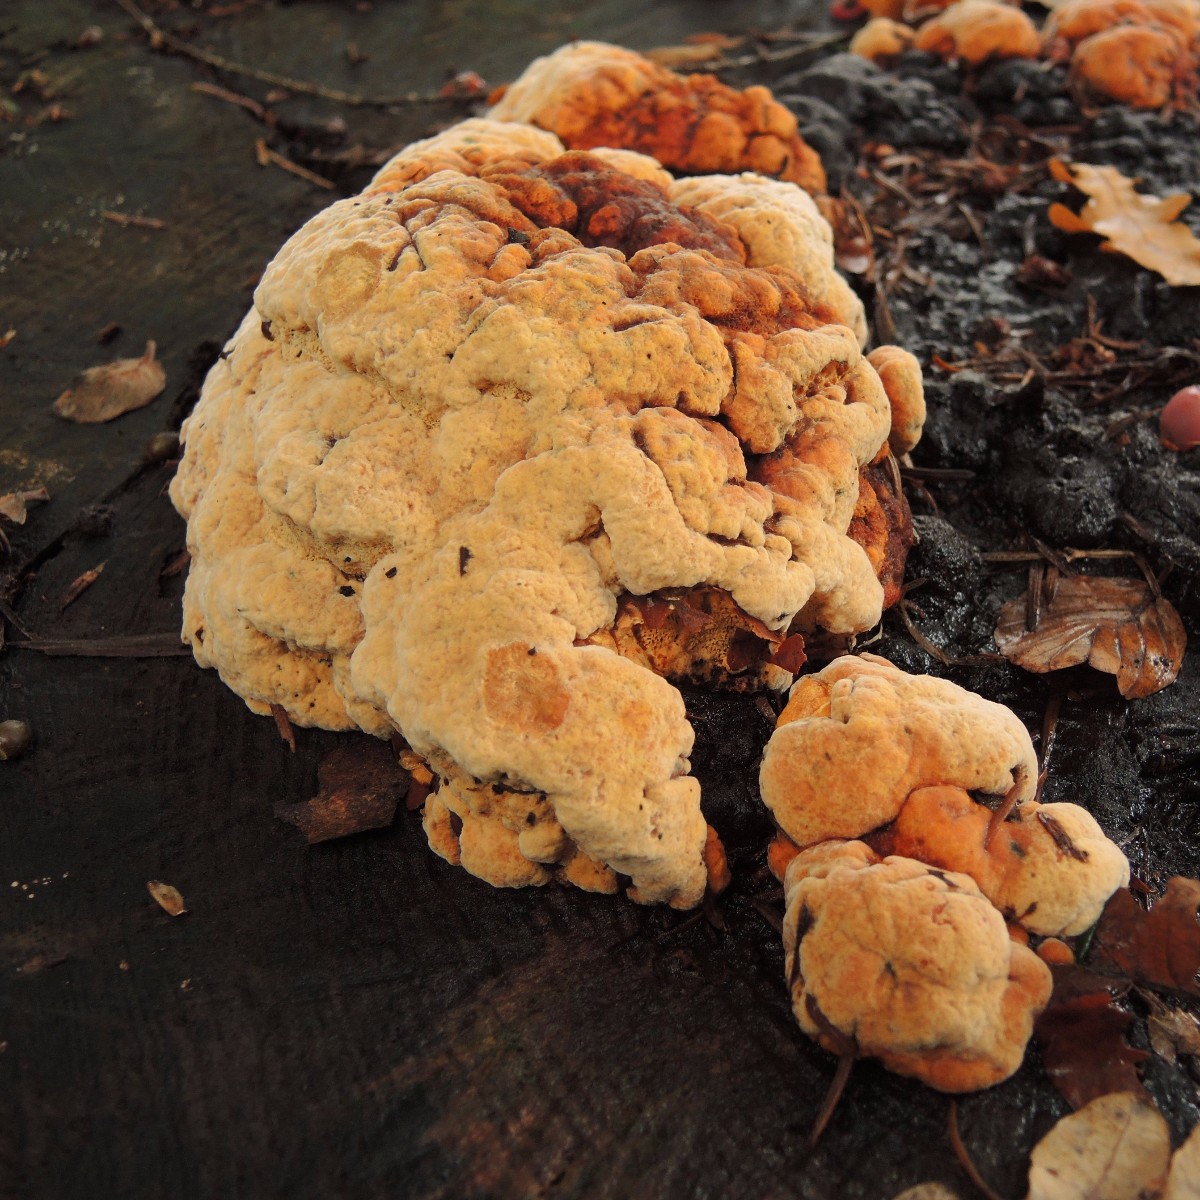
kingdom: Fungi
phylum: Basidiomycota
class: Agaricomycetes
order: Gloeophyllales
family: Gloeophyllaceae
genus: Gloeophyllum
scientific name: Gloeophyllum odoratum
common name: duftende korkhat
